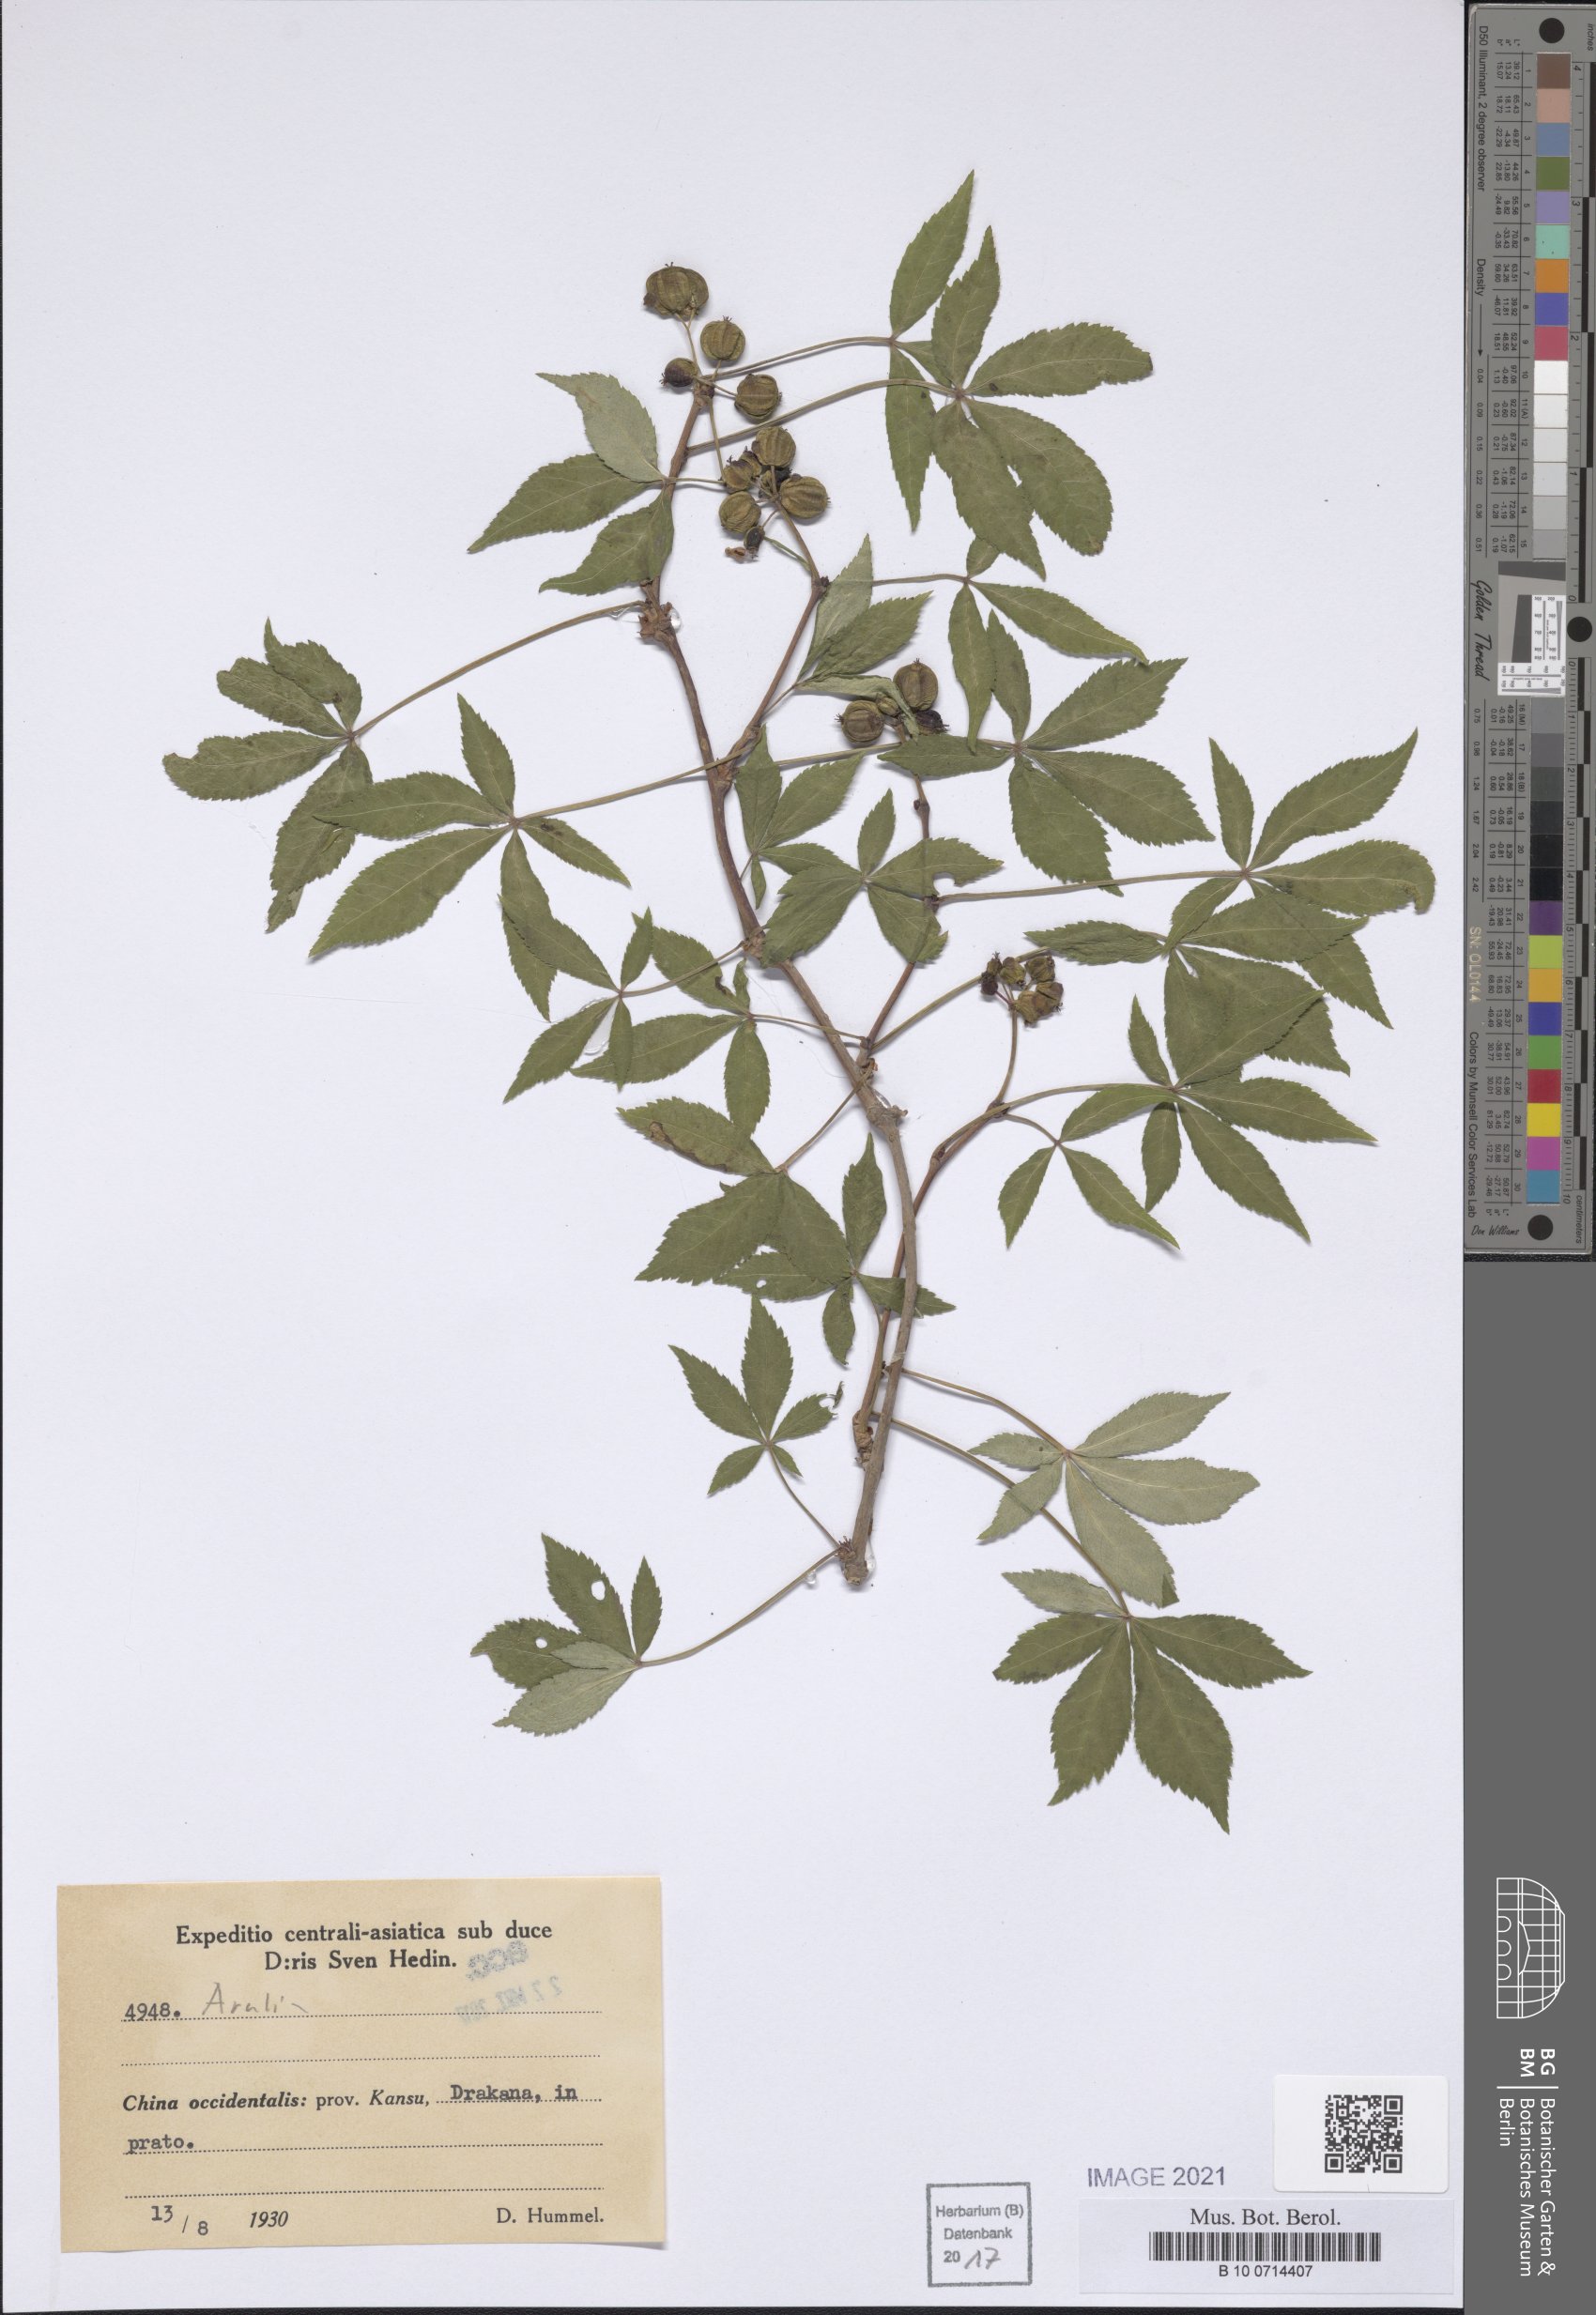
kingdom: Plantae
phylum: Tracheophyta
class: Magnoliopsida
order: Apiales
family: Araliaceae
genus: Aralia
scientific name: Aralia
